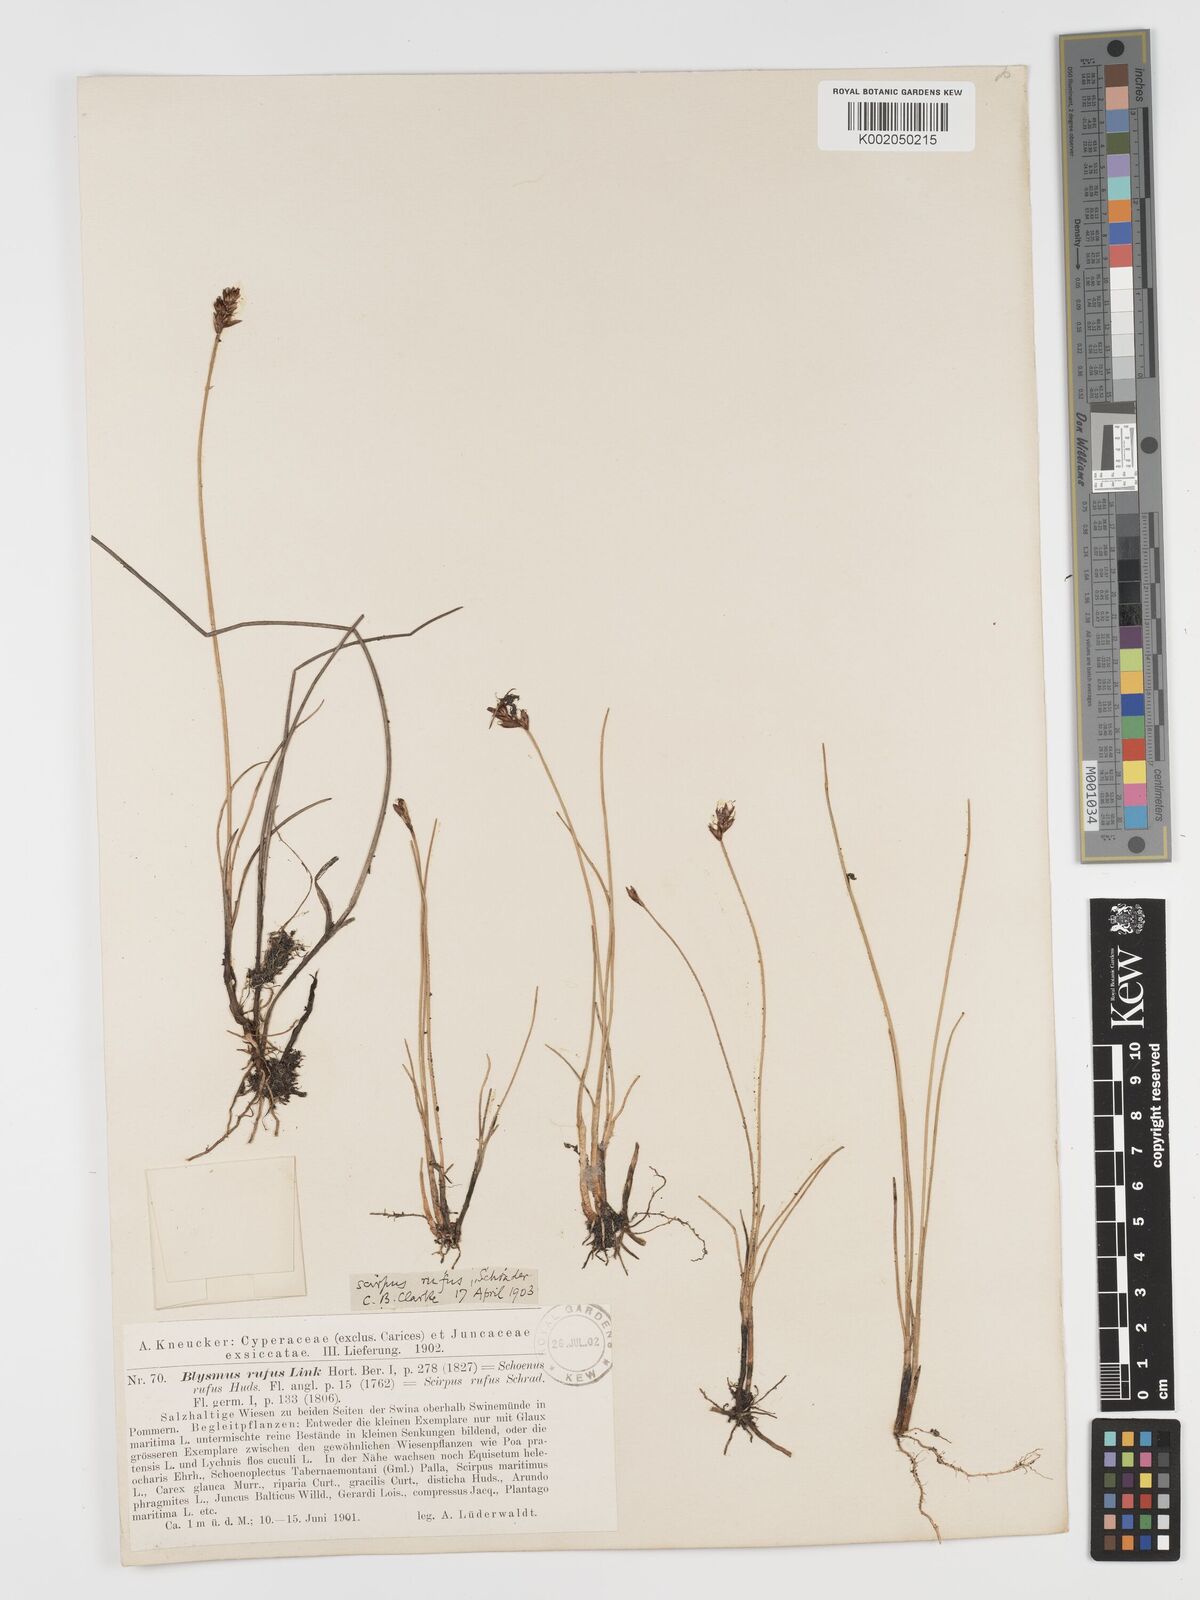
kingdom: Plantae
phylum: Tracheophyta
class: Liliopsida
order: Poales
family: Cyperaceae
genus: Blysmus
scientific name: Blysmus rufus
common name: Saltmarsh flat-sedge
